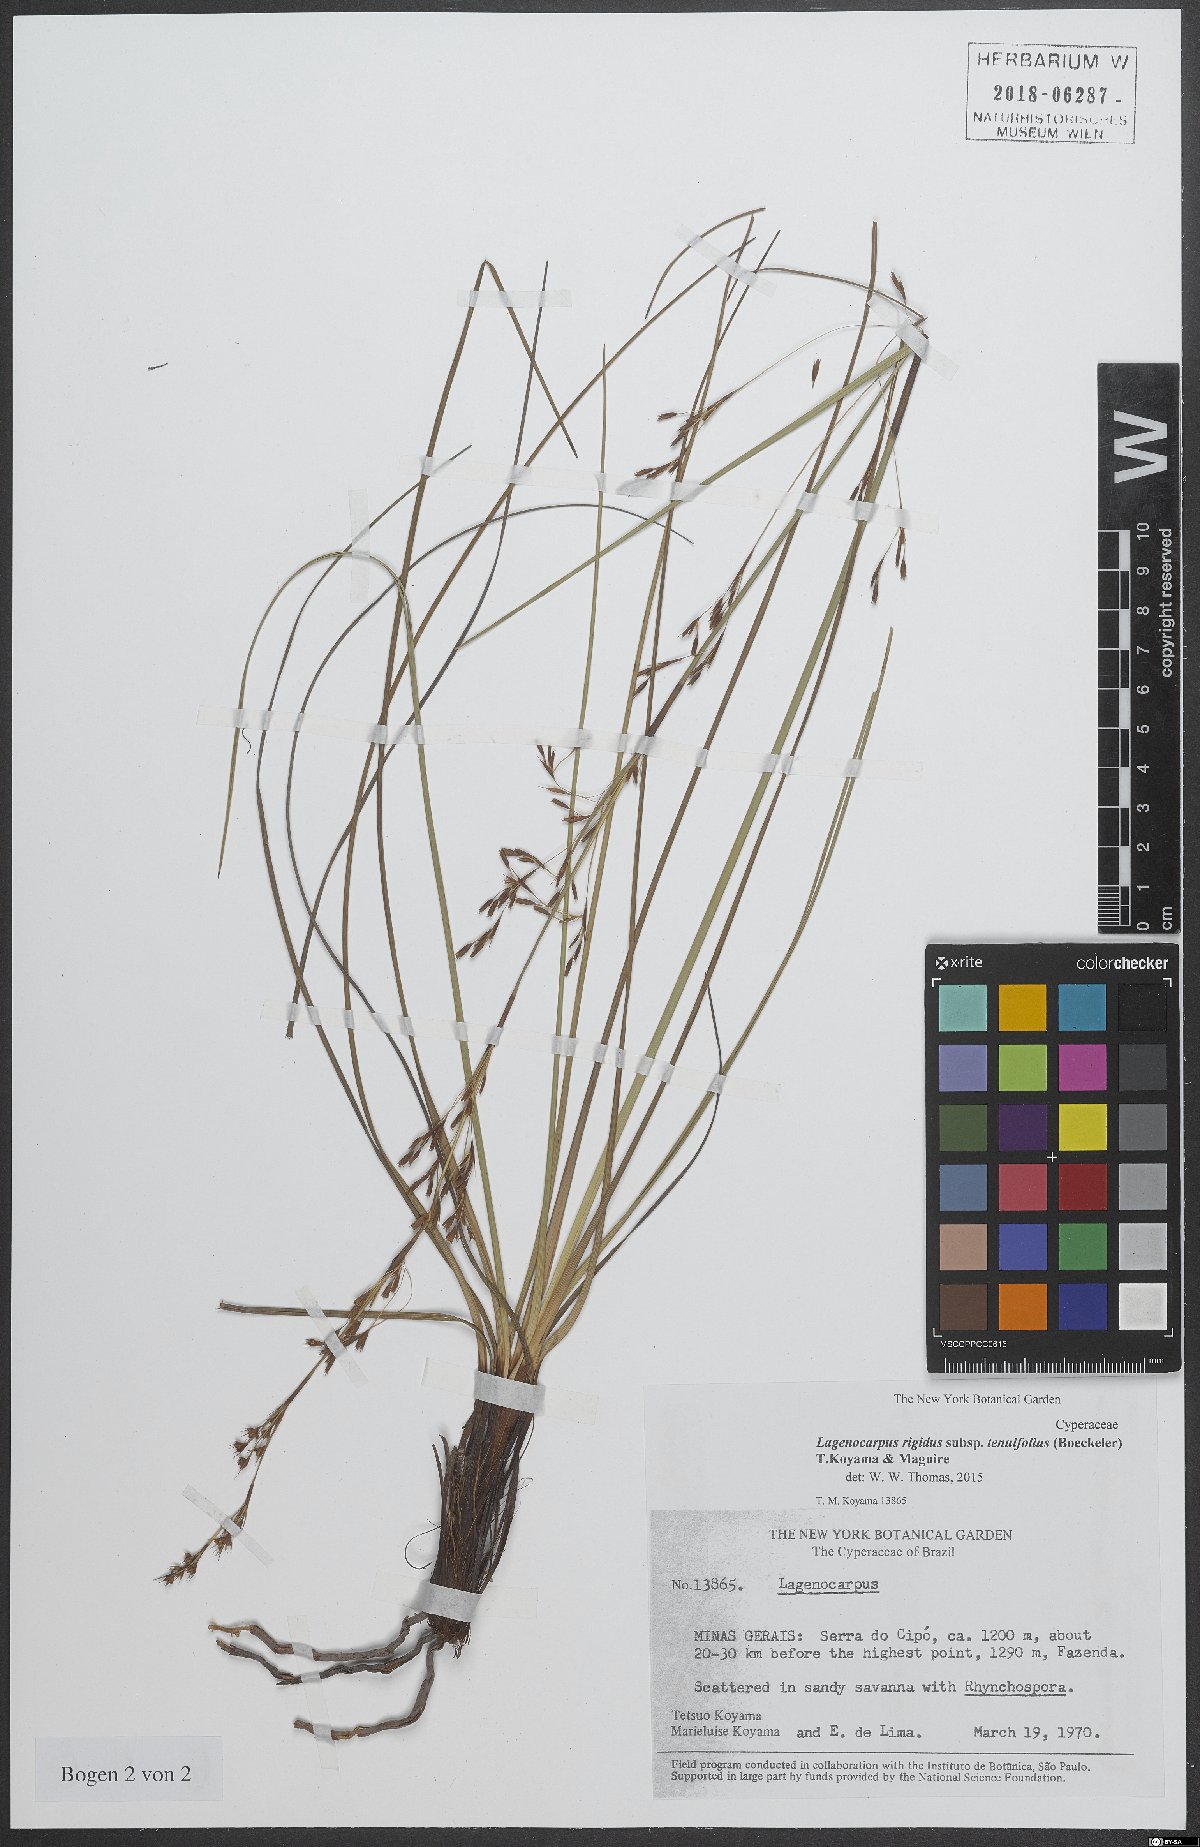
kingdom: Plantae
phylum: Tracheophyta
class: Liliopsida
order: Poales
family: Cyperaceae
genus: Lagenocarpus
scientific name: Lagenocarpus rigidus
